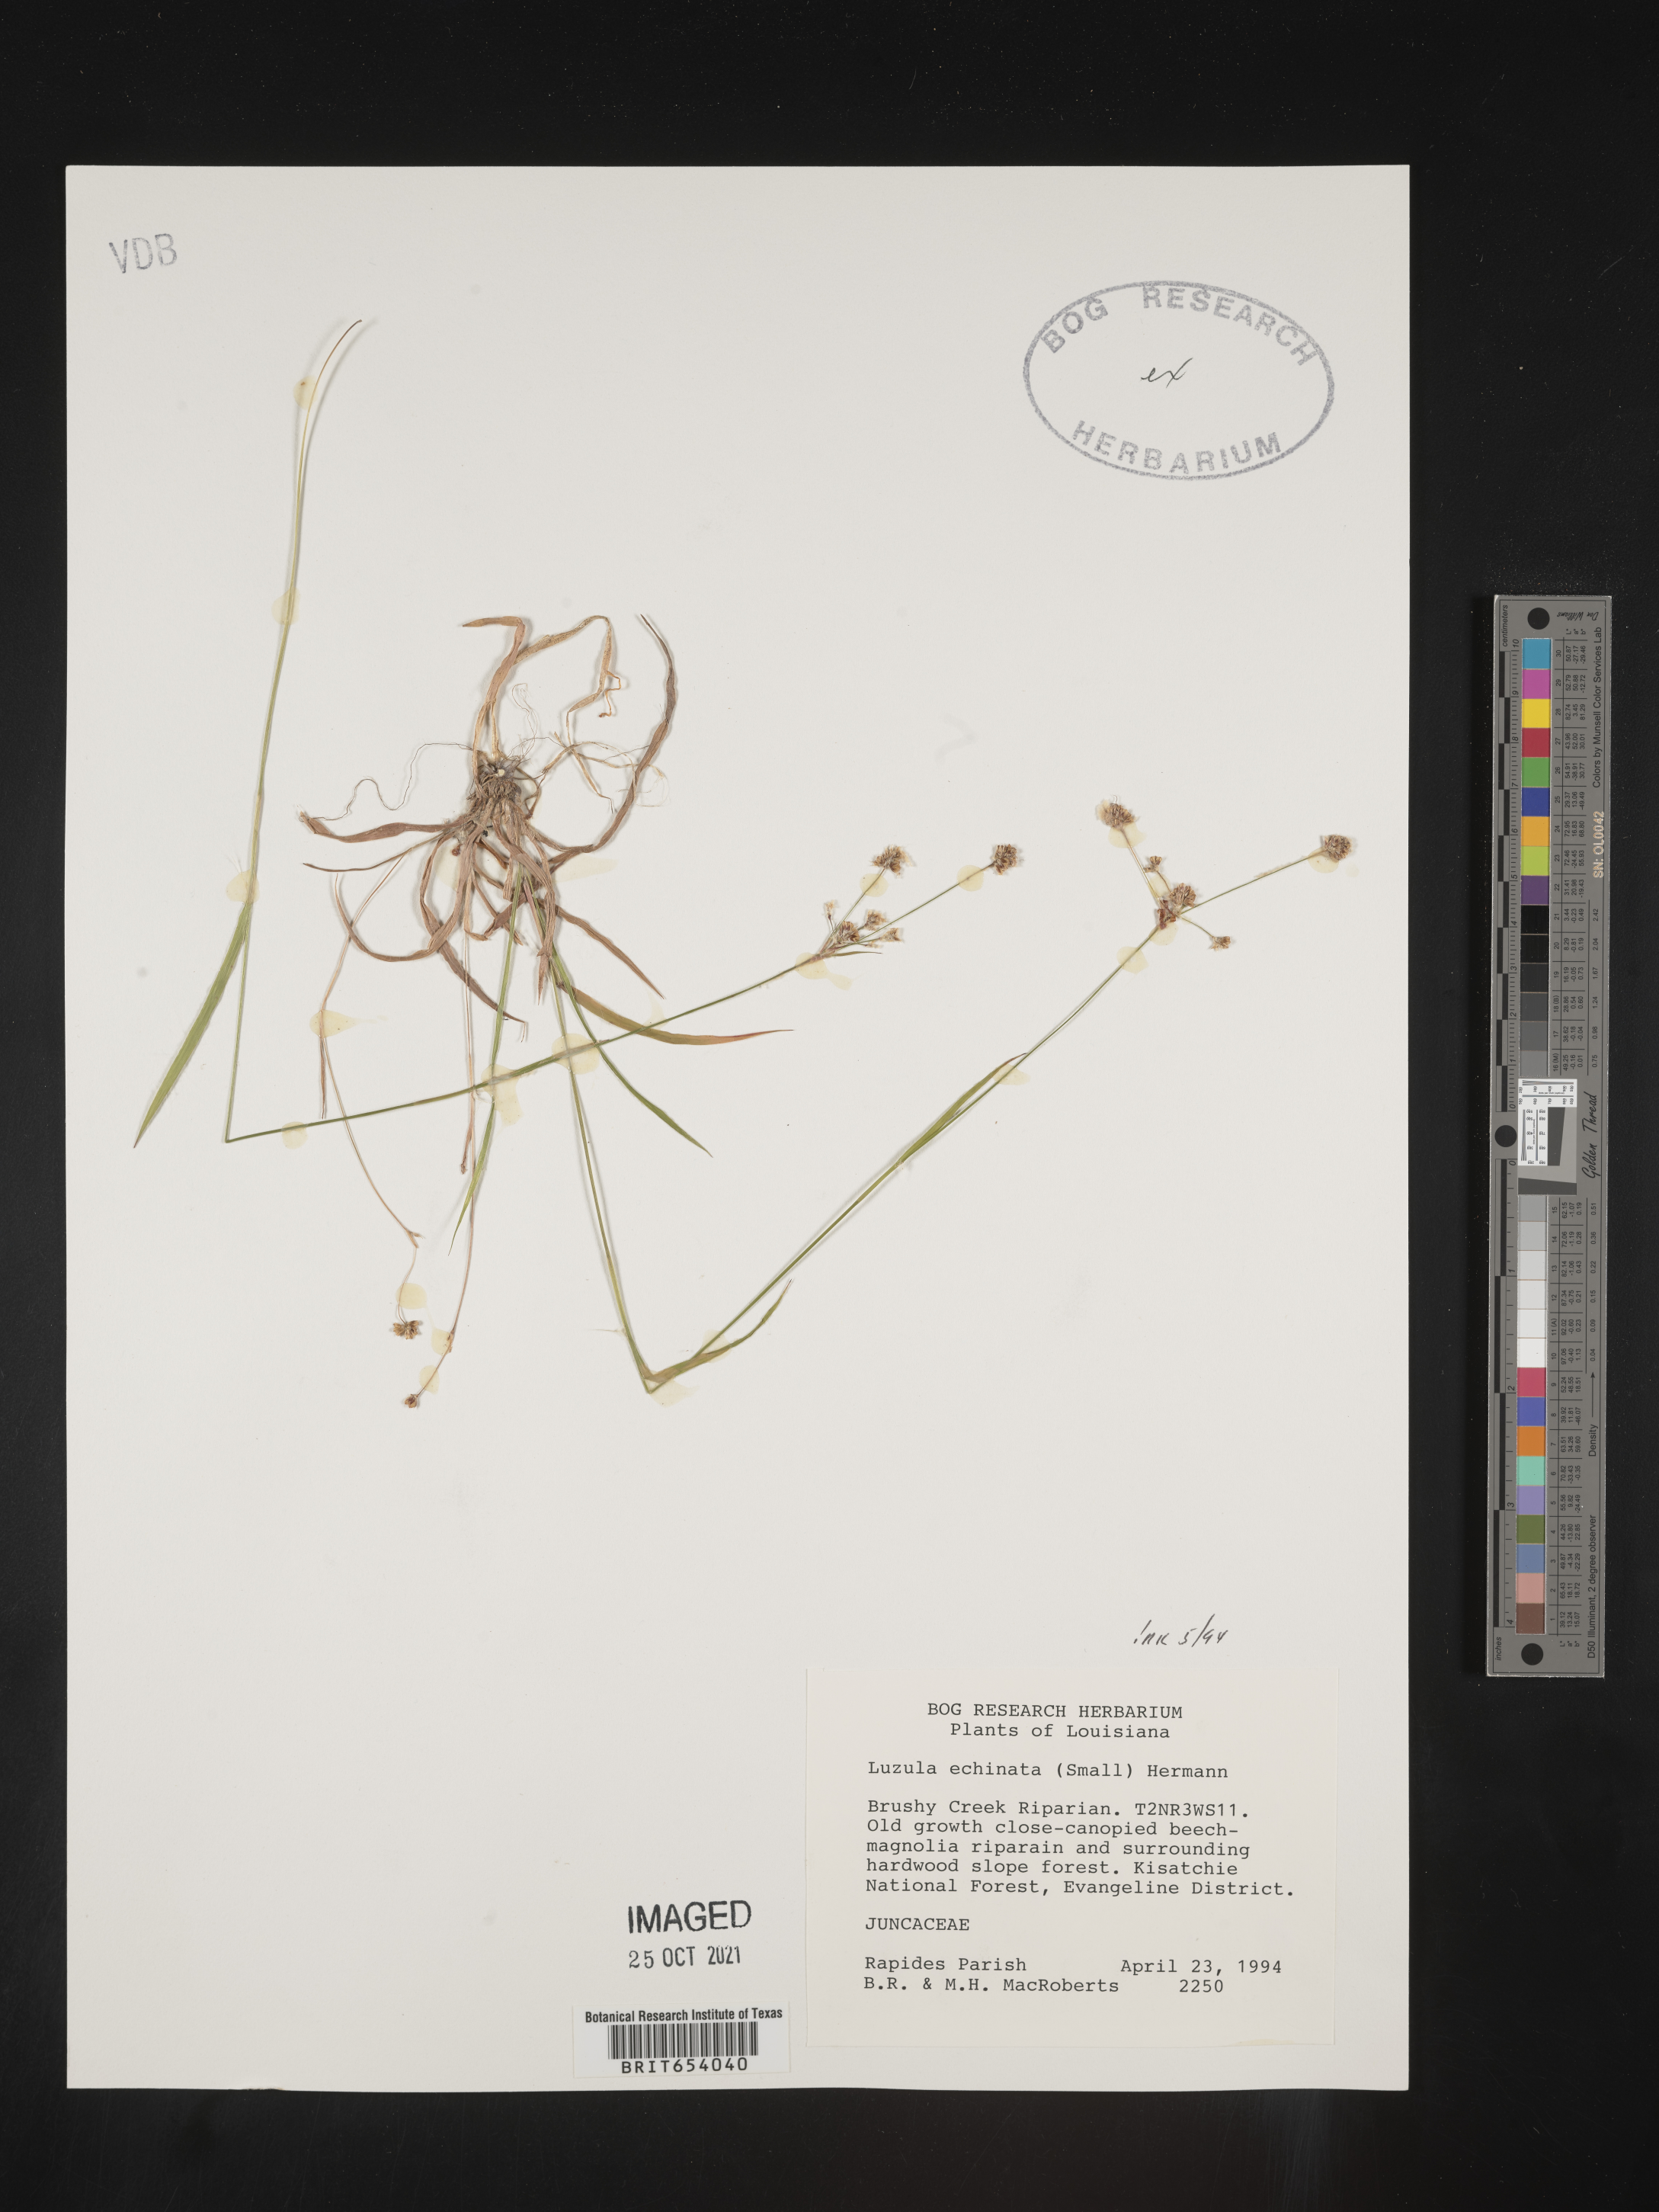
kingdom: Plantae
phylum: Tracheophyta
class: Liliopsida
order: Poales
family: Juncaceae
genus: Luzula
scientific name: Luzula echinata
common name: Hedgehog woodrush
